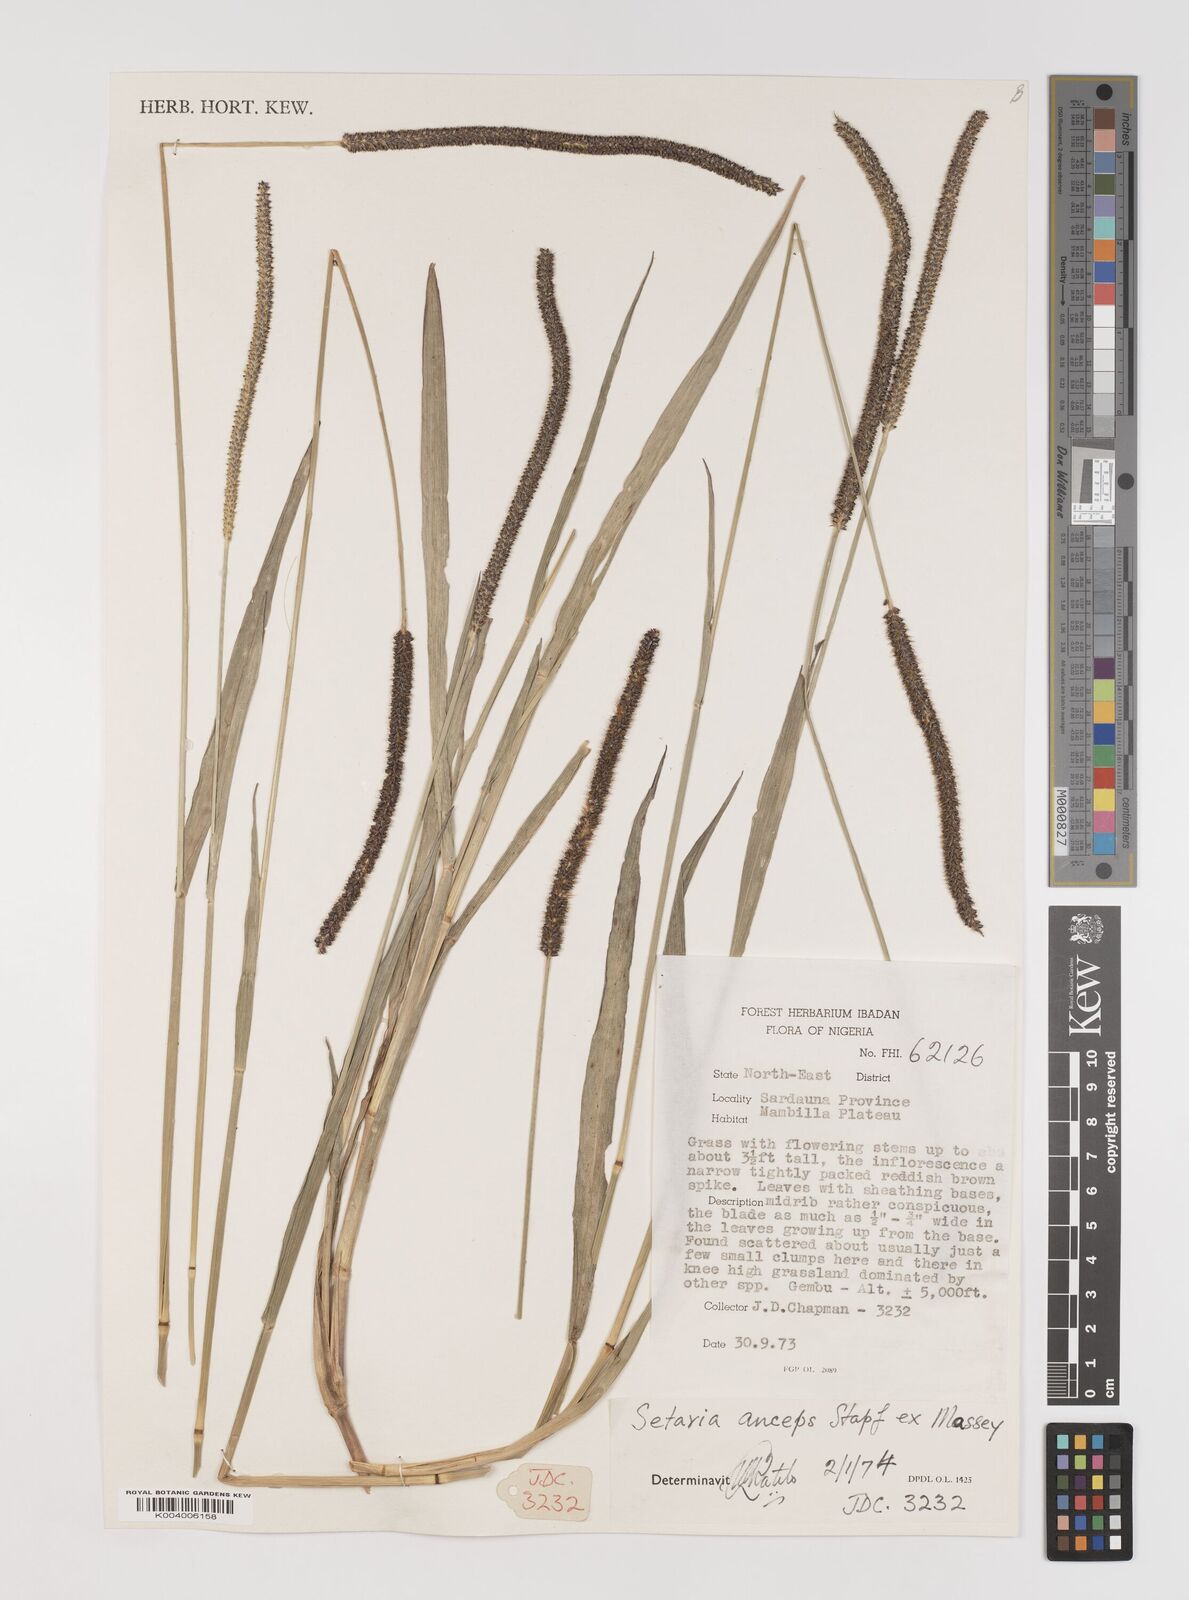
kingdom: Plantae
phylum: Tracheophyta
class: Liliopsida
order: Poales
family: Poaceae
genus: Setaria
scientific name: Setaria sphacelata
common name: African bristlegrass
